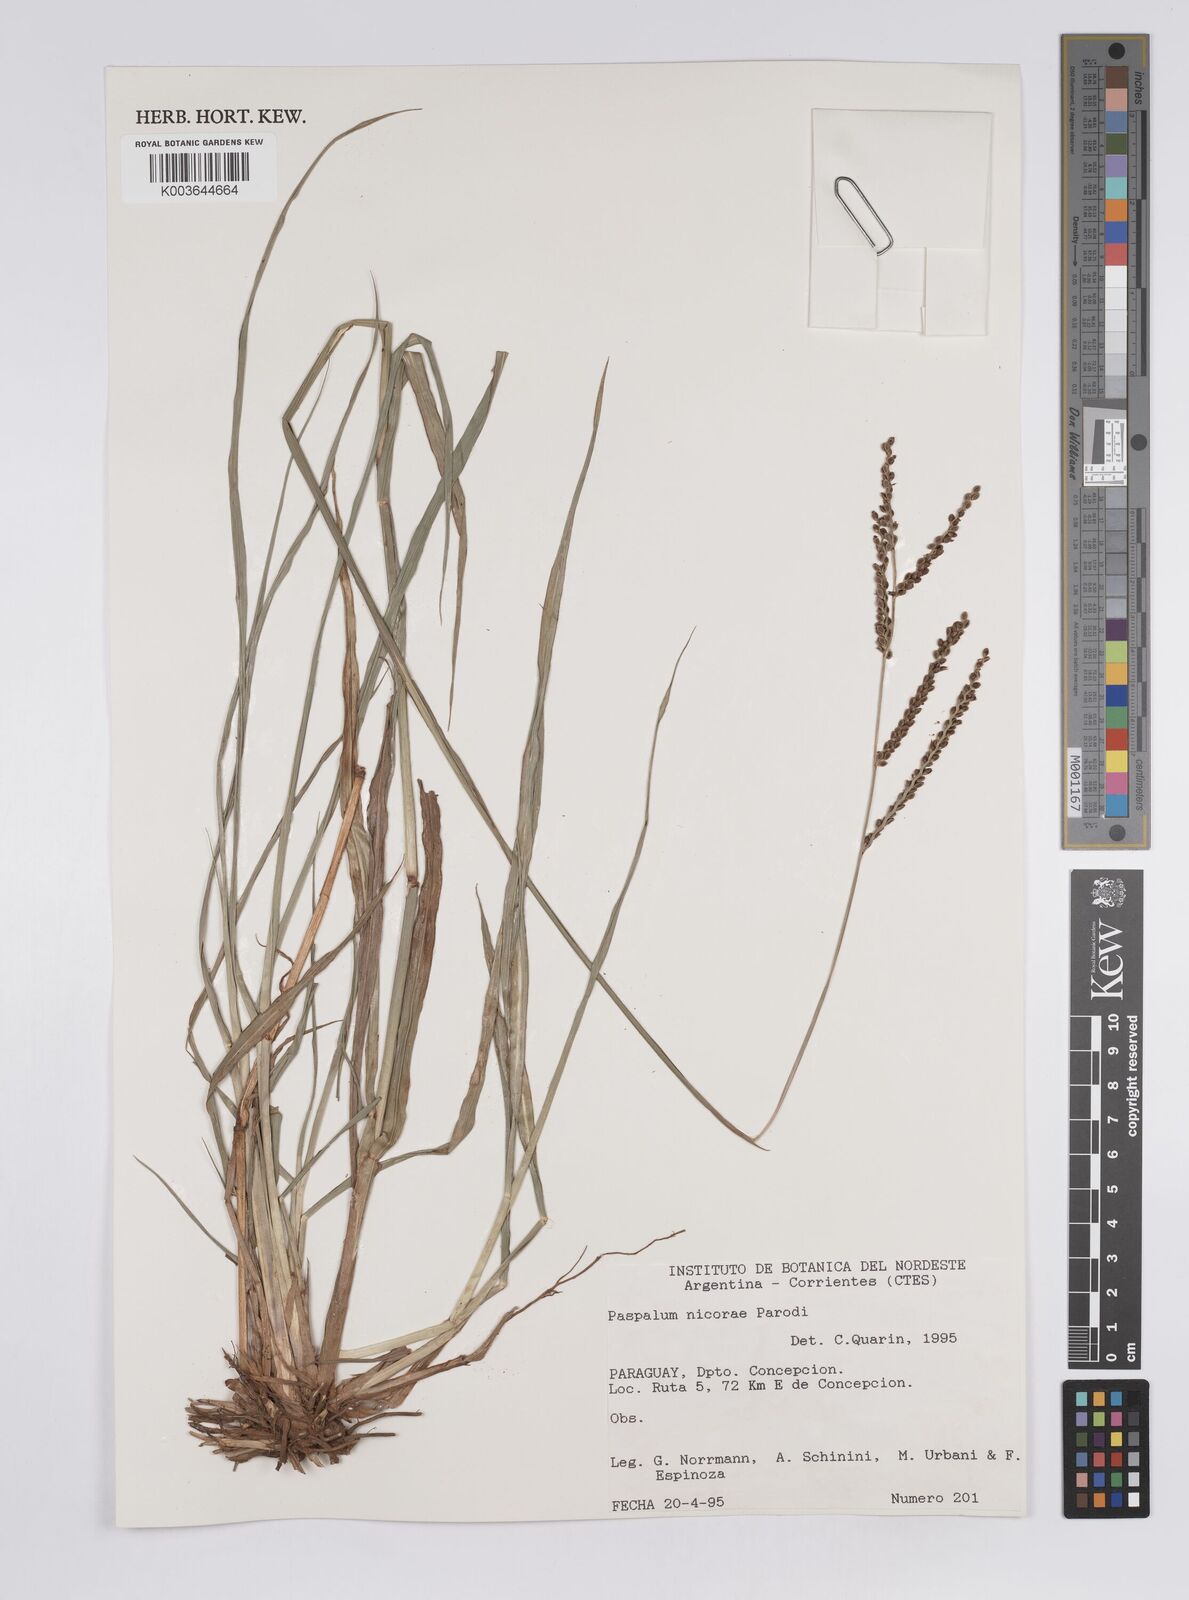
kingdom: Plantae
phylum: Tracheophyta
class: Liliopsida
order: Poales
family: Poaceae
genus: Paspalum
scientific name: Paspalum plicatulum
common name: Top paspalum
